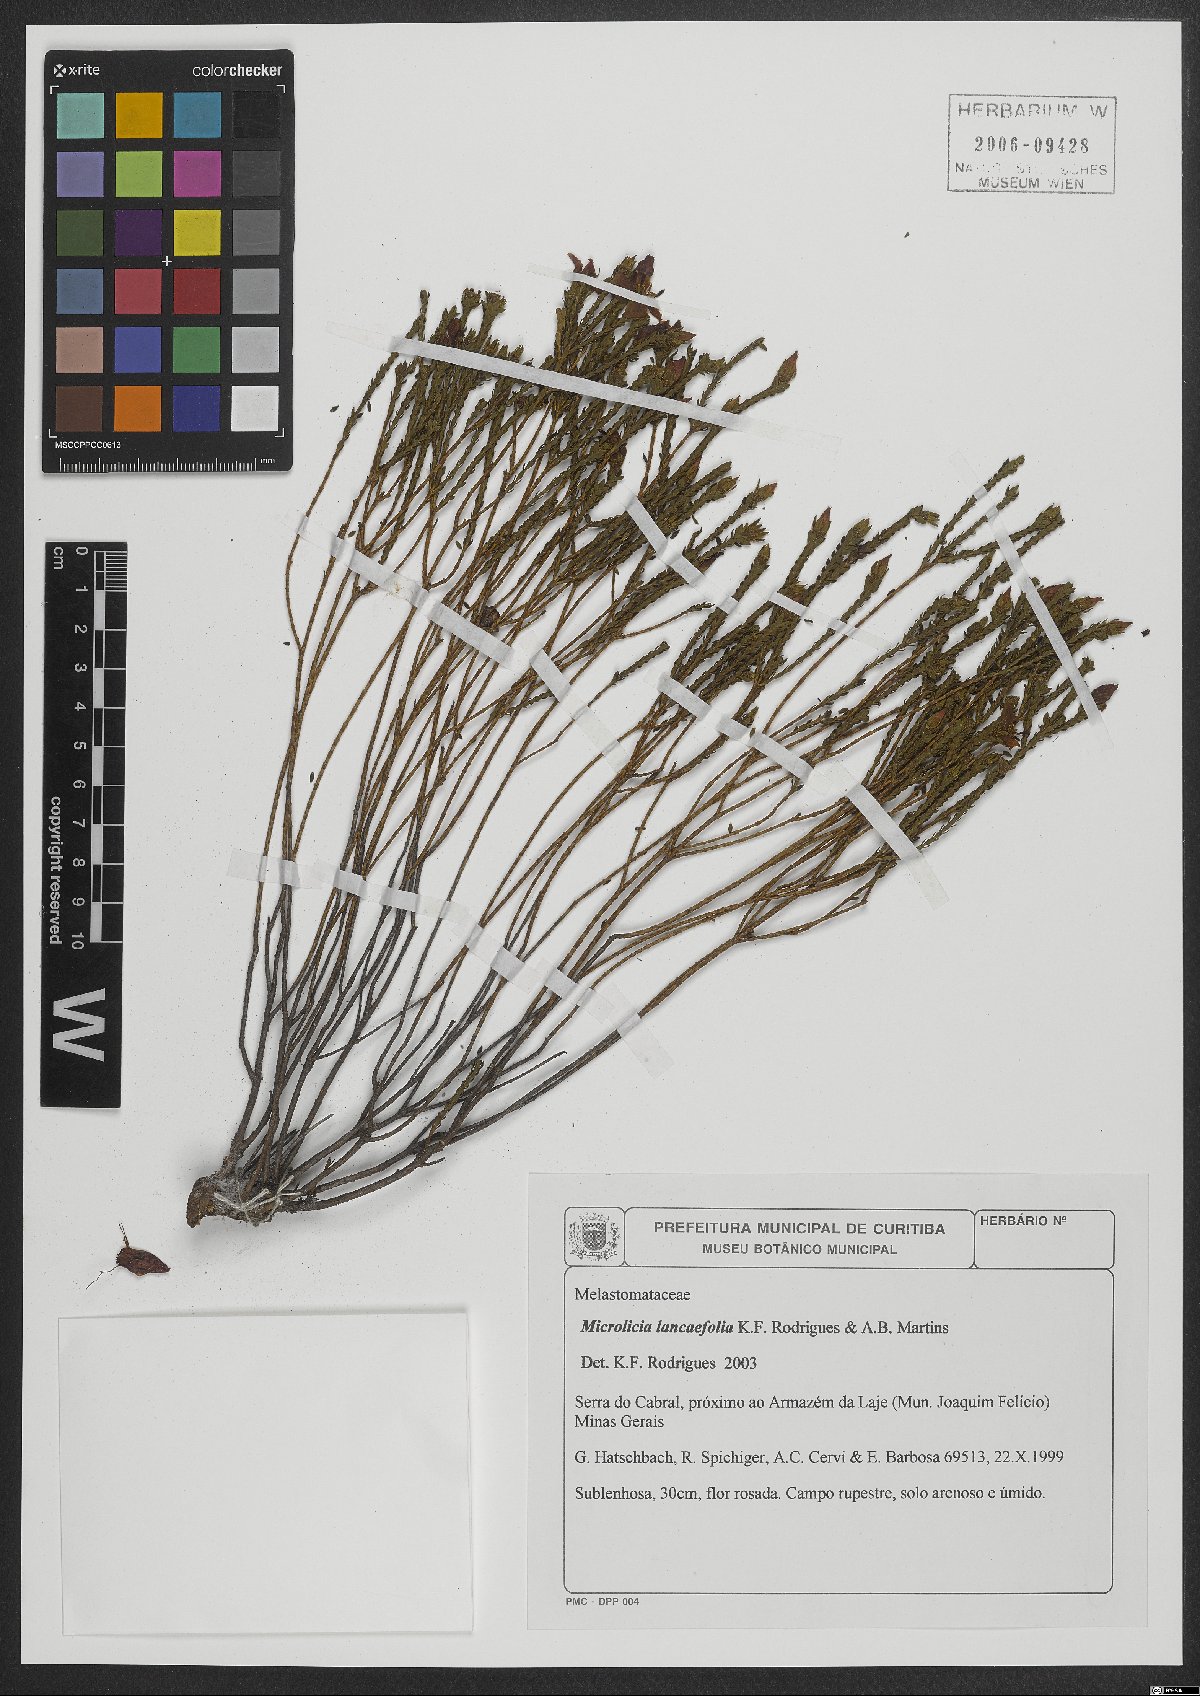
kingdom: Plantae
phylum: Tracheophyta
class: Magnoliopsida
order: Myrtales
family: Melastomataceae
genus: Fritzschia
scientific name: Fritzschia lanceiflora
